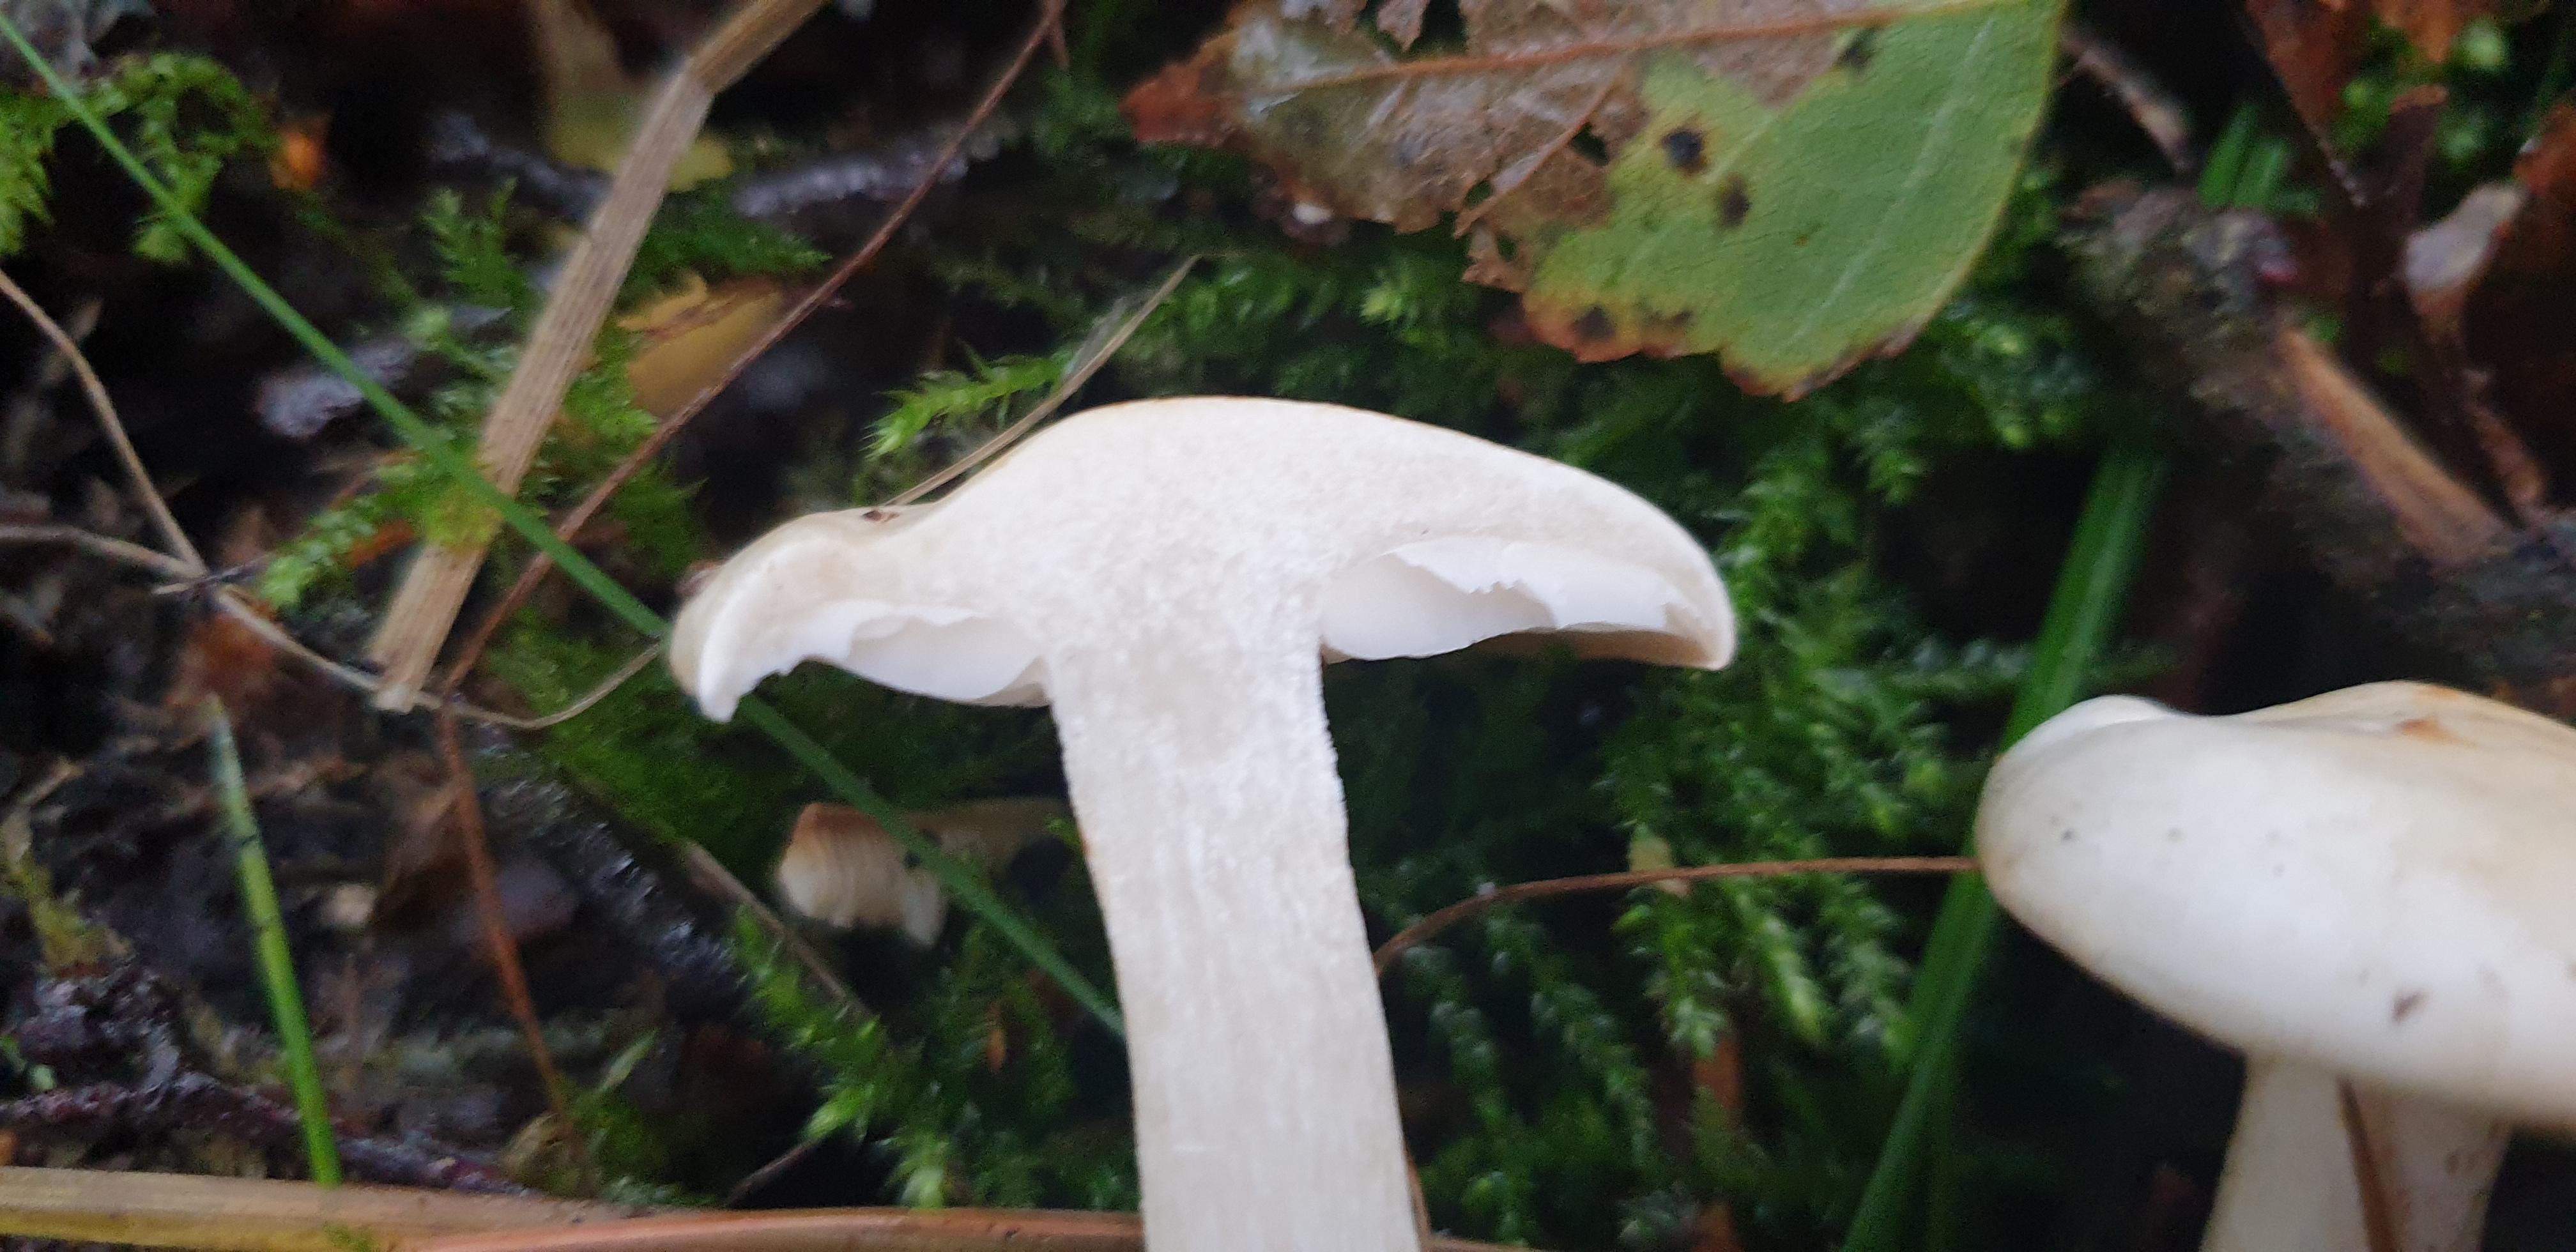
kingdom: Fungi
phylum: Basidiomycota
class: Agaricomycetes
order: Agaricales
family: Tricholomataceae
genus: Tricholoma
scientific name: Tricholoma stiparophyllum
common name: hvid ridderhat
